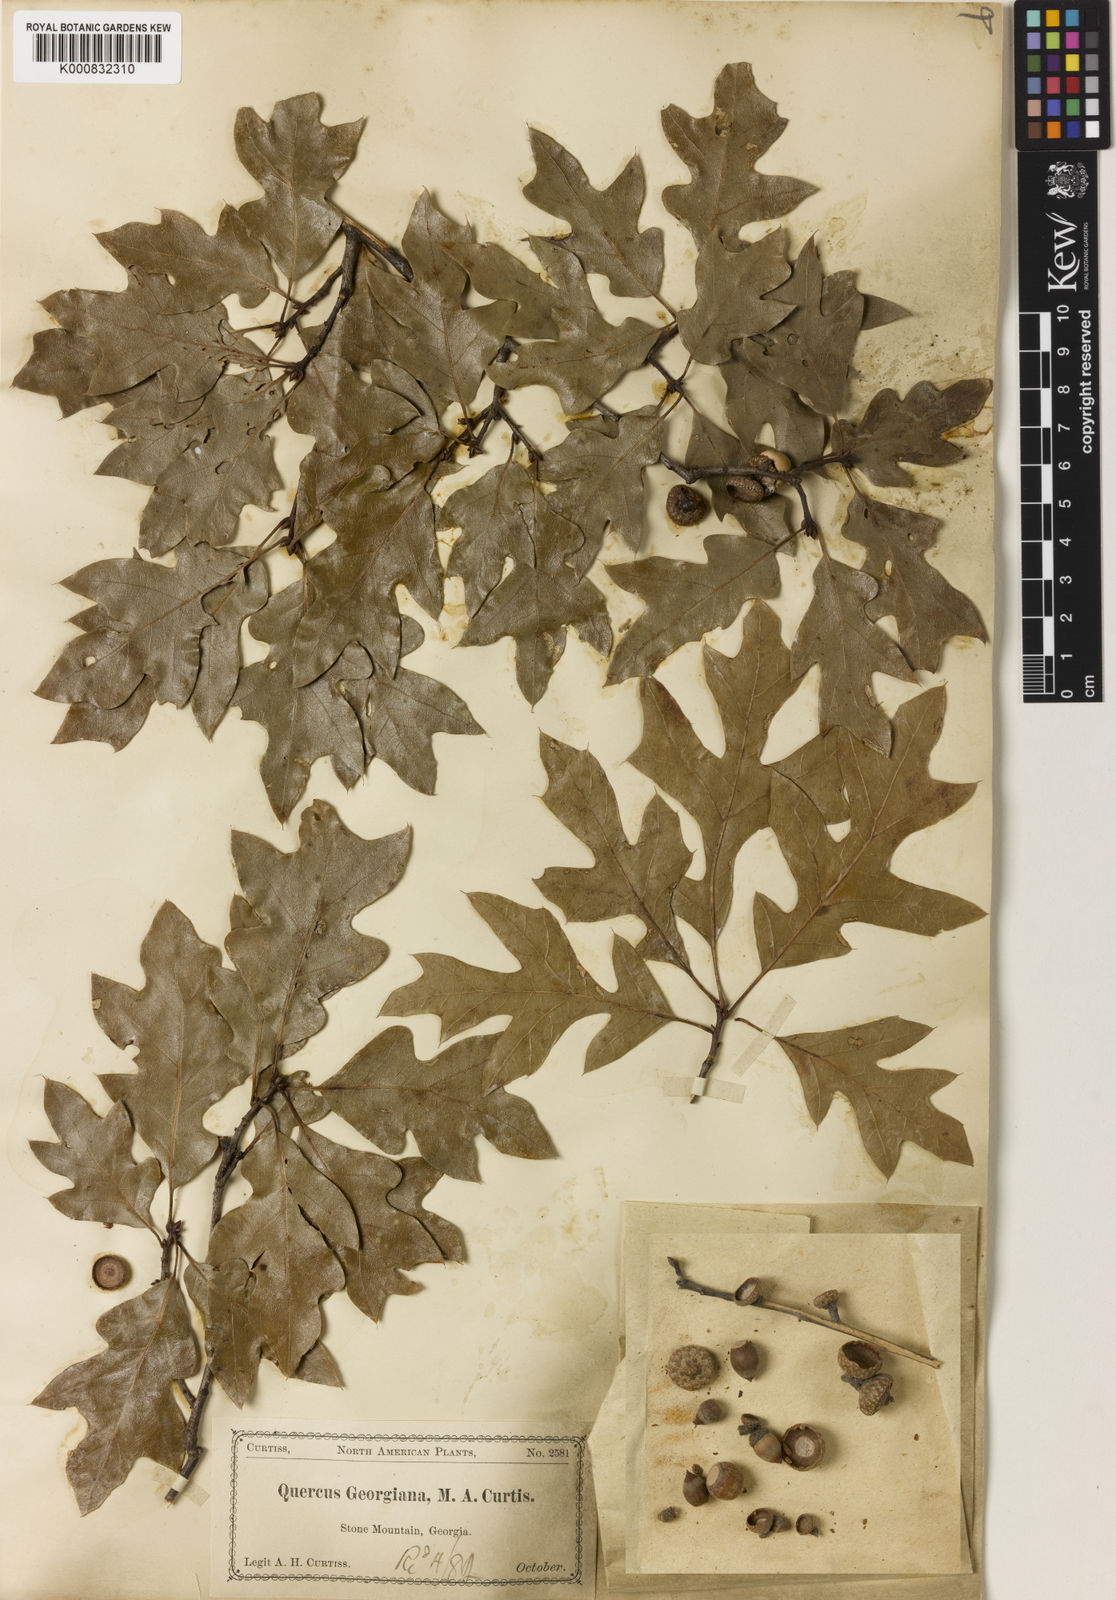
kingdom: Plantae
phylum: Tracheophyta
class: Magnoliopsida
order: Fagales
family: Fagaceae
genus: Quercus
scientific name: Quercus georgiana
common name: Georgia oak
